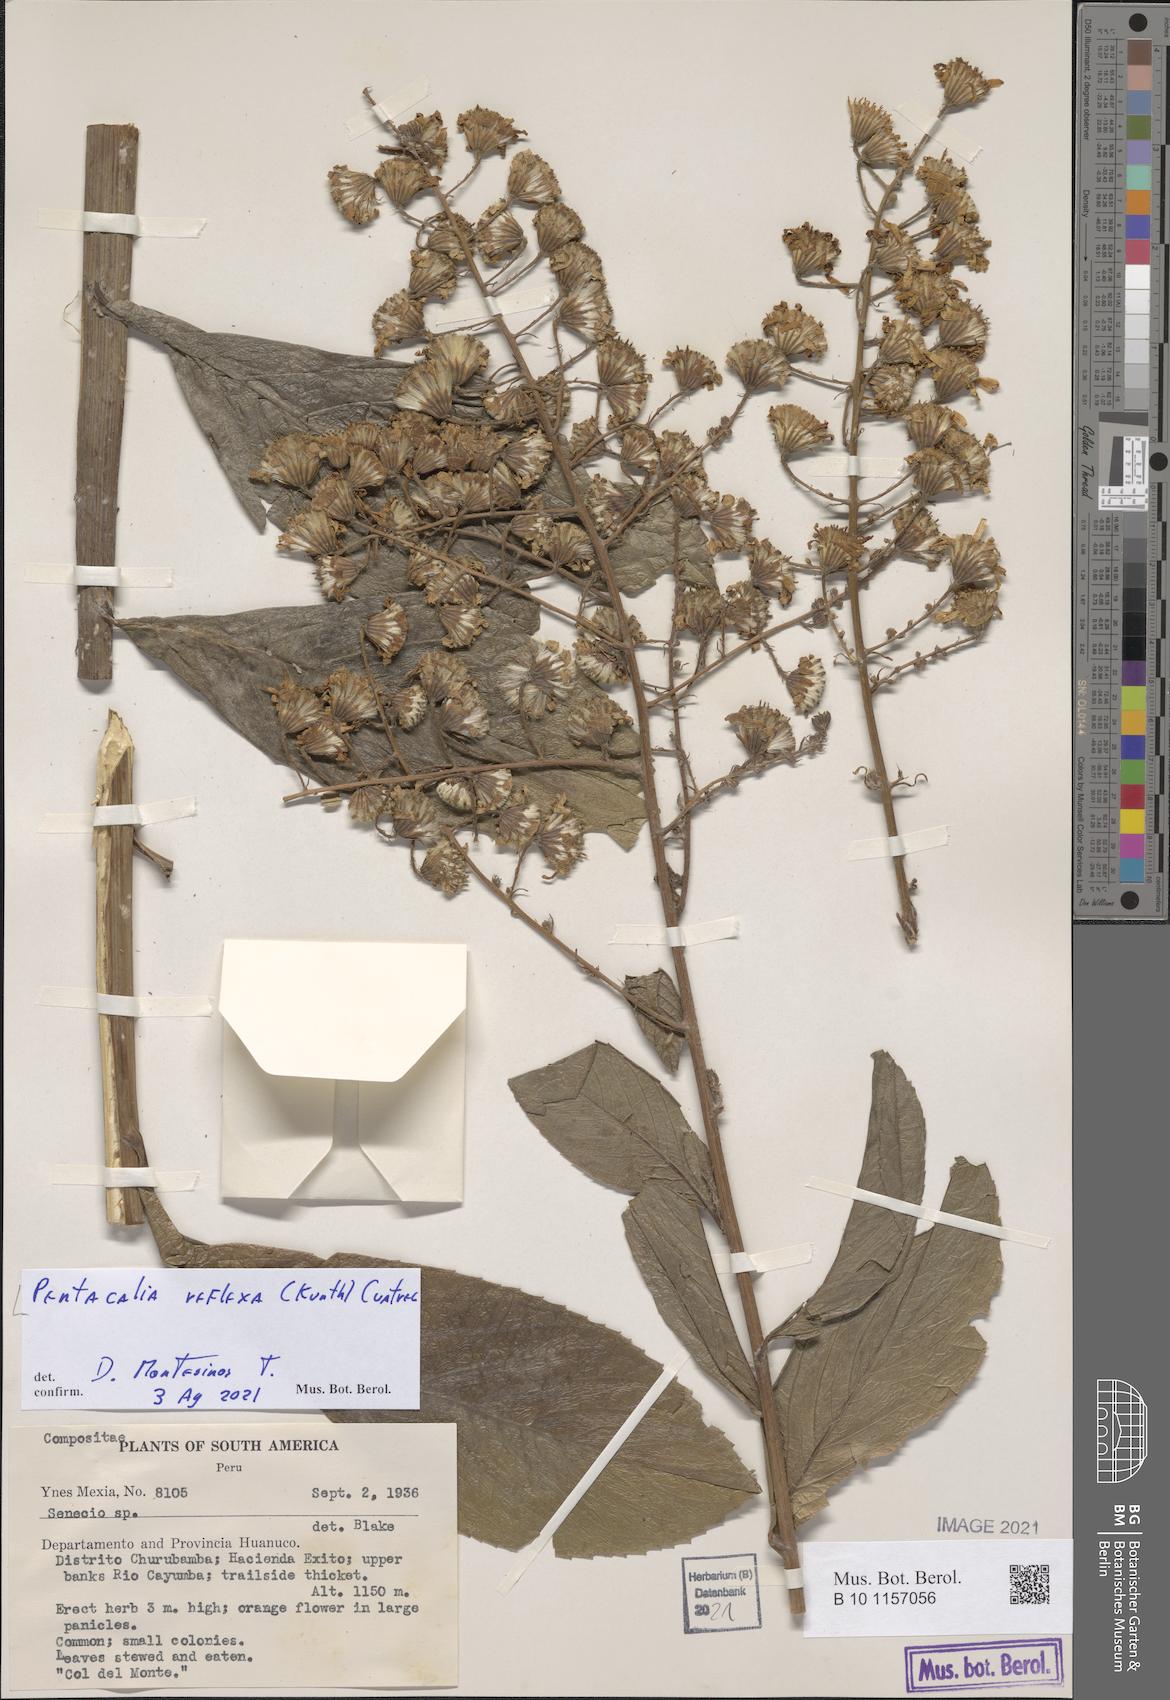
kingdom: Plantae
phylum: Tracheophyta
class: Magnoliopsida
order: Asterales
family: Asteraceae
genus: Dendrophorbium
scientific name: Dendrophorbium reflexum
